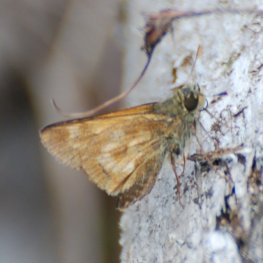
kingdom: Animalia
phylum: Arthropoda
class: Insecta
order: Lepidoptera
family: Hesperiidae
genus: Polites
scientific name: Polites
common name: Long Dash Skipper
